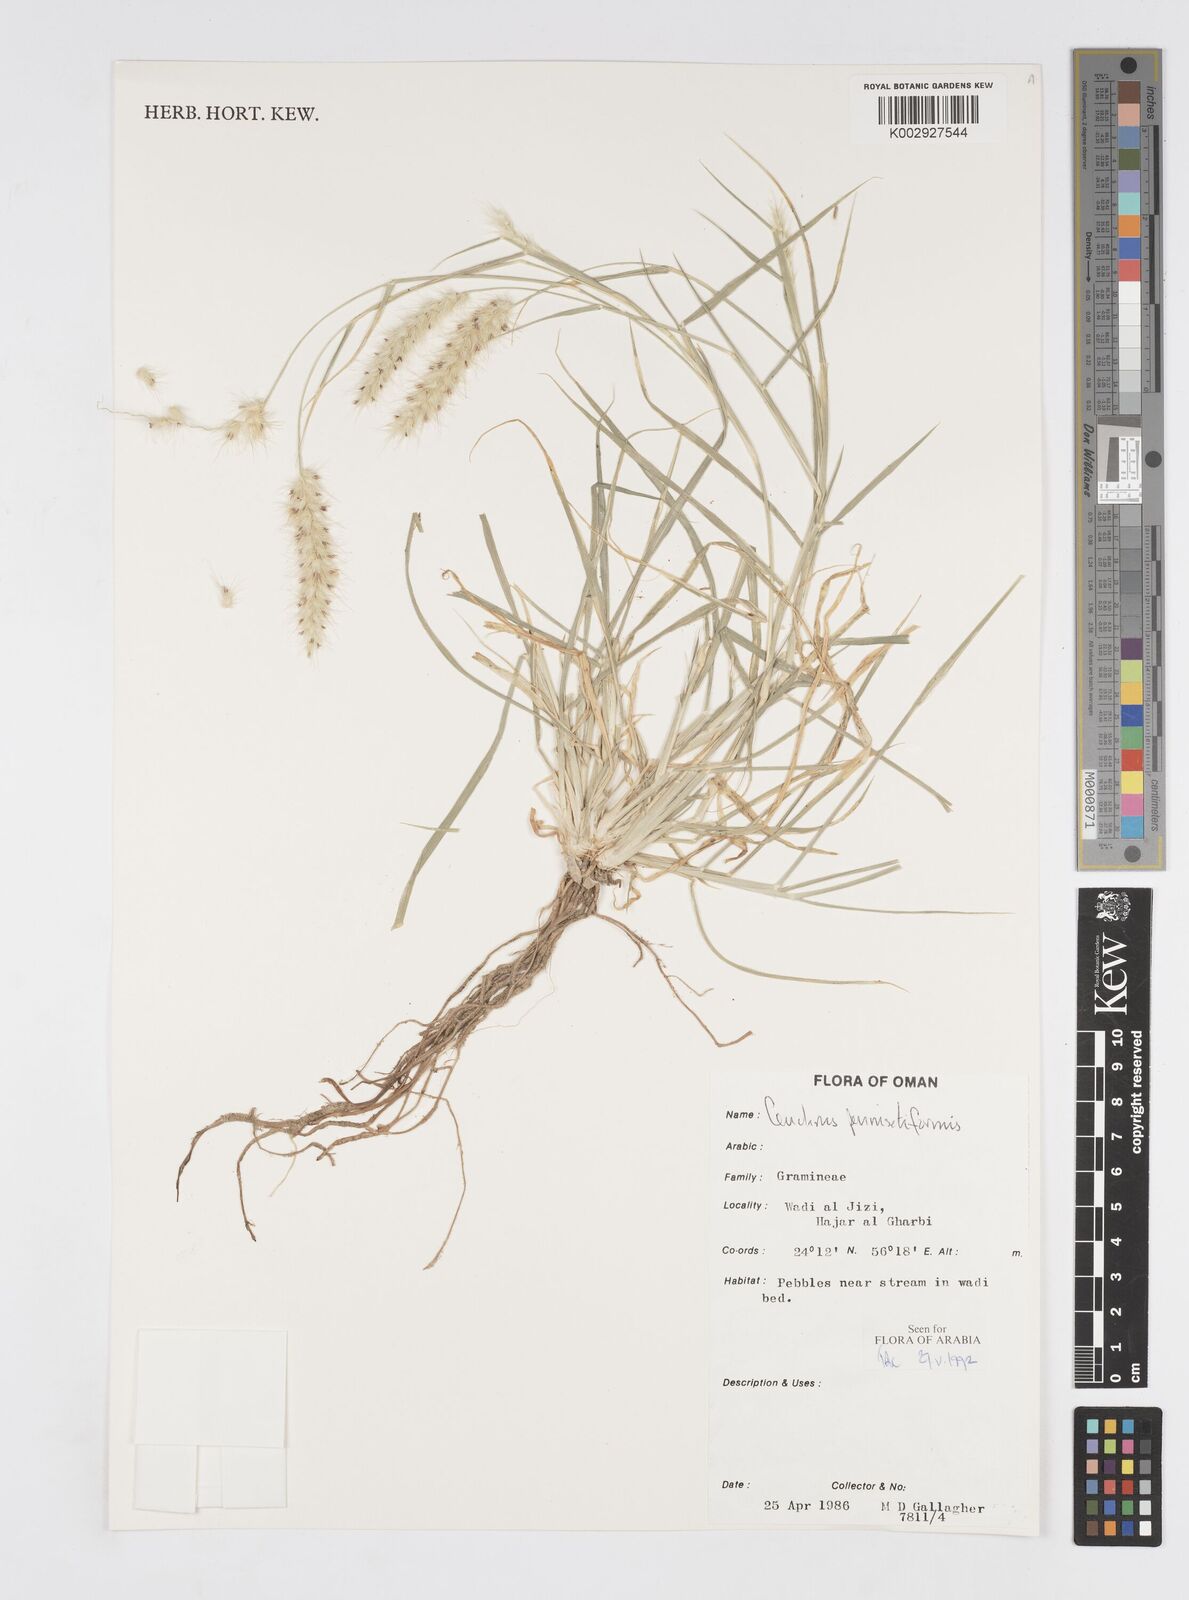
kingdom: Plantae
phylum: Tracheophyta
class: Liliopsida
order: Poales
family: Poaceae
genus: Cenchrus
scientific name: Cenchrus pennisetiformis
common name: Cloncurry
